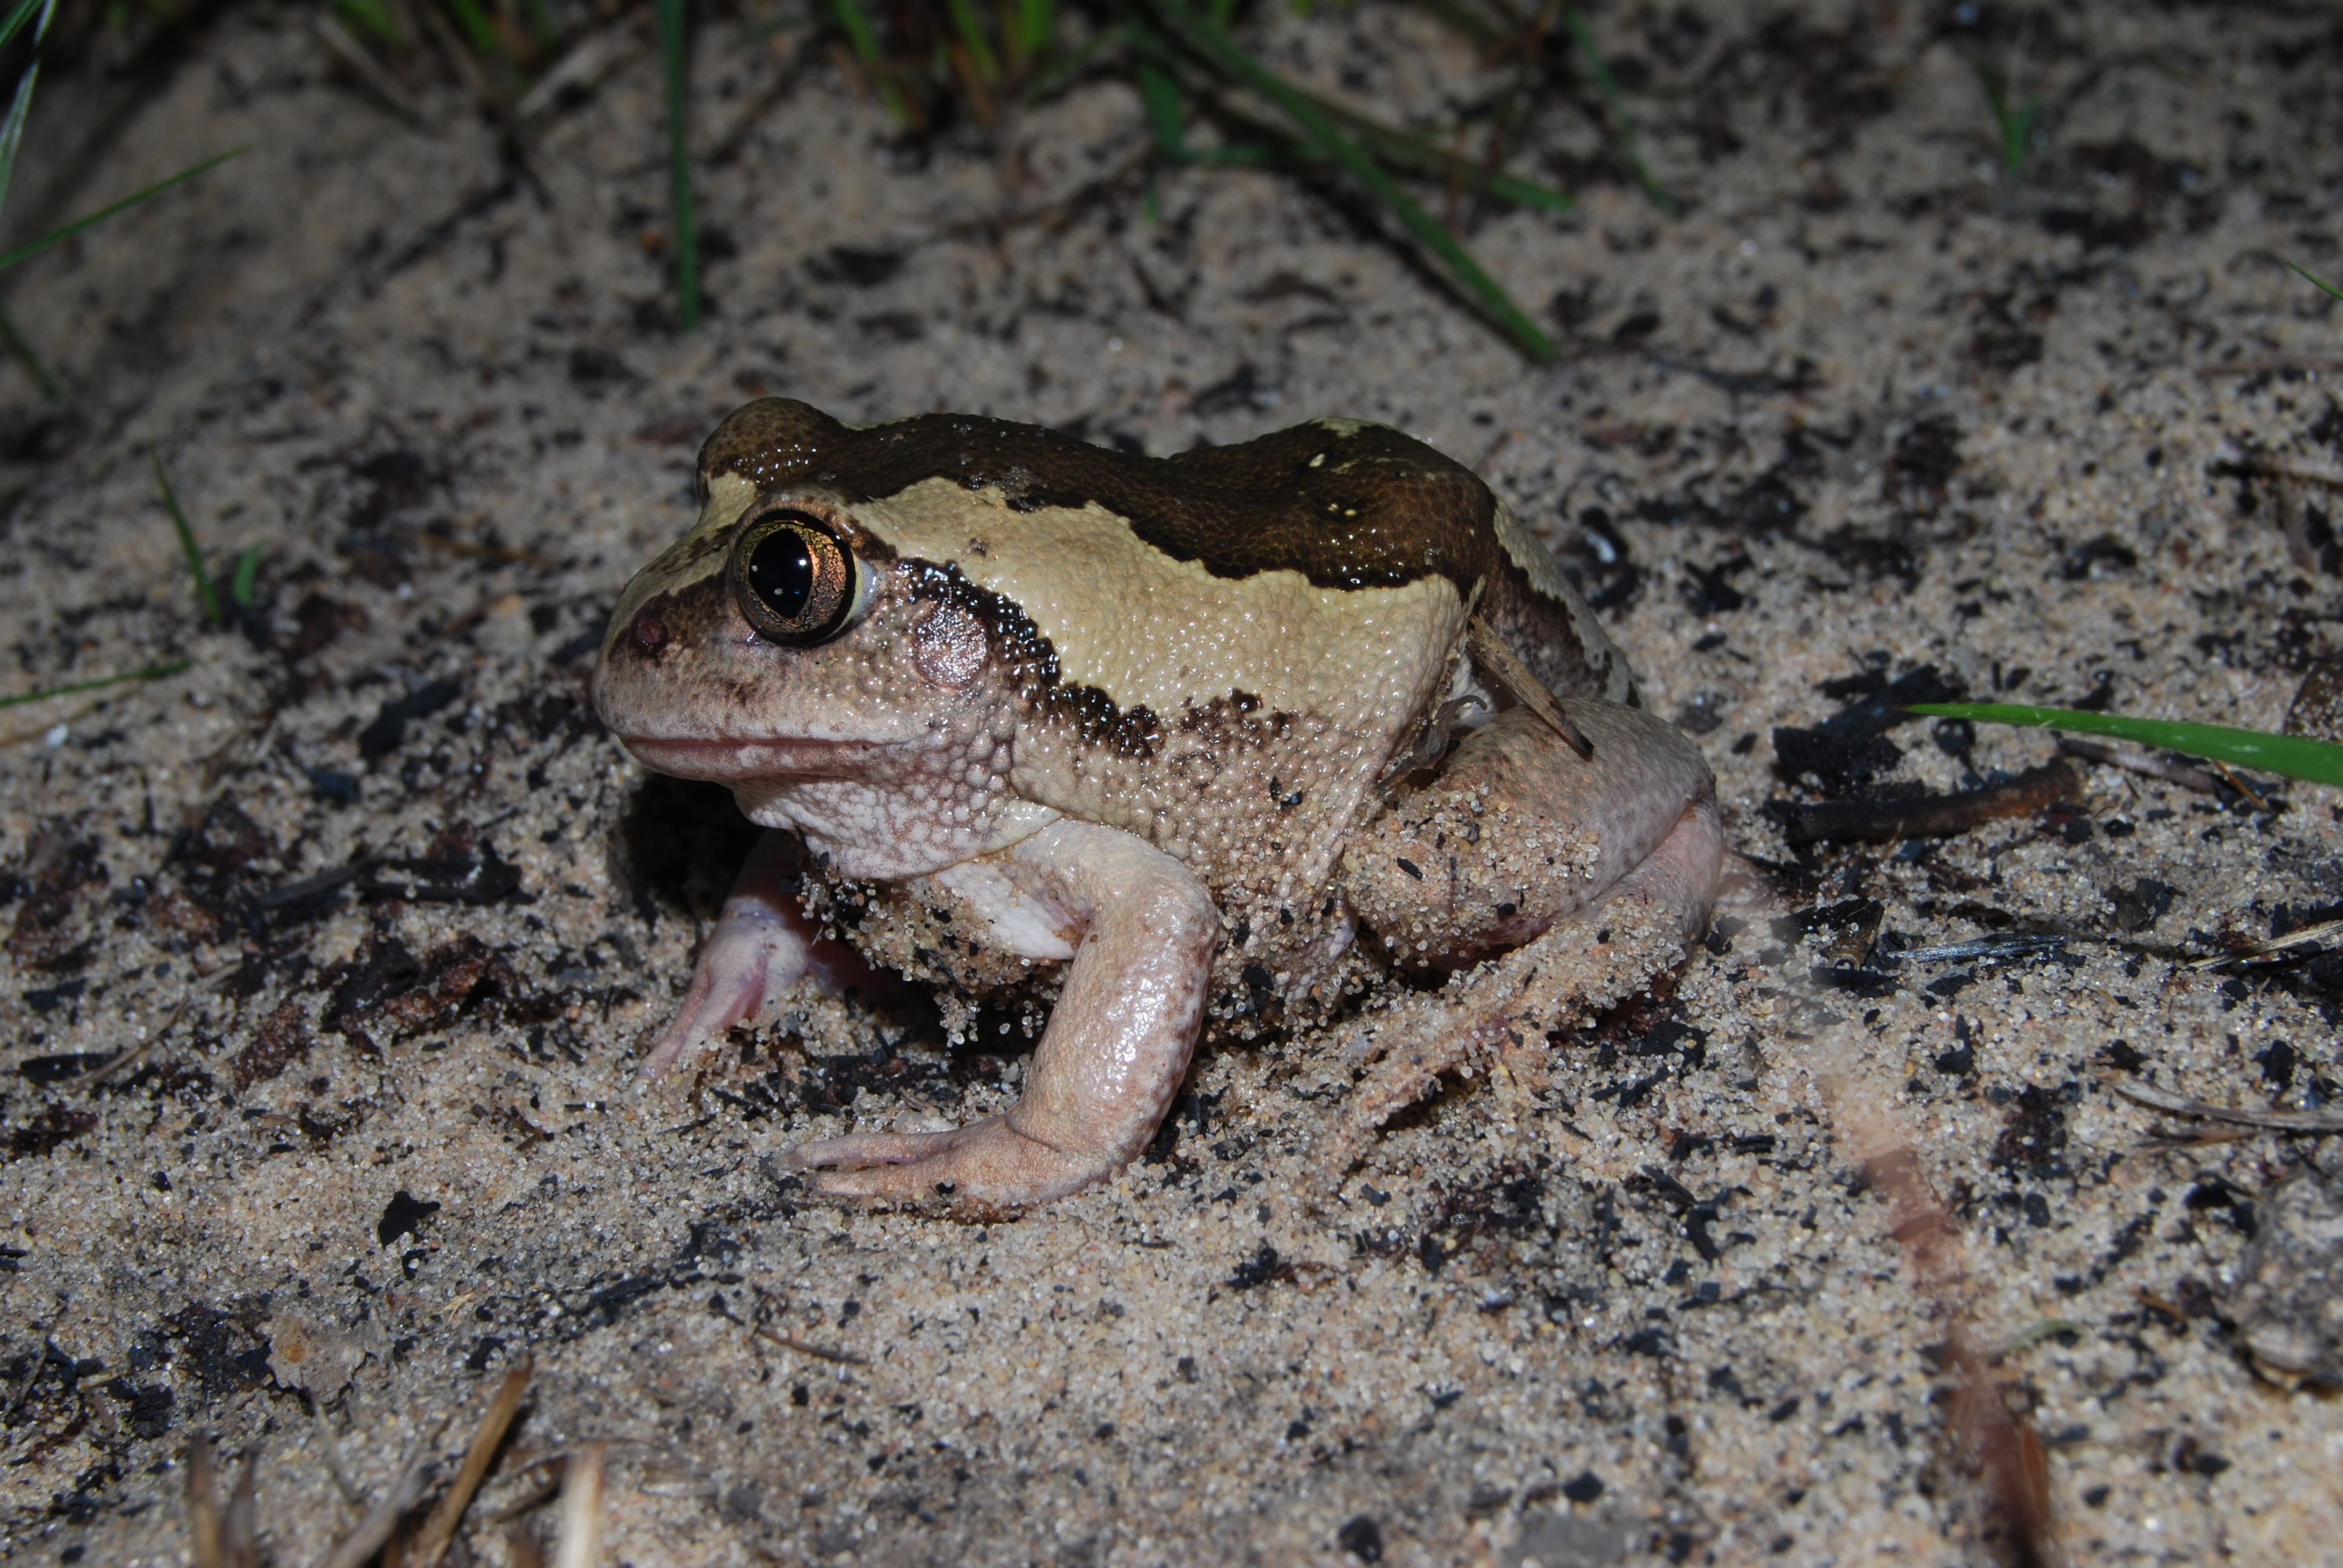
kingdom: Animalia
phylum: Chordata
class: Amphibia
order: Anura
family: Arthroleptidae
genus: Leptopelis
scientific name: Leptopelis bocagii
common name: Bocage's frog
